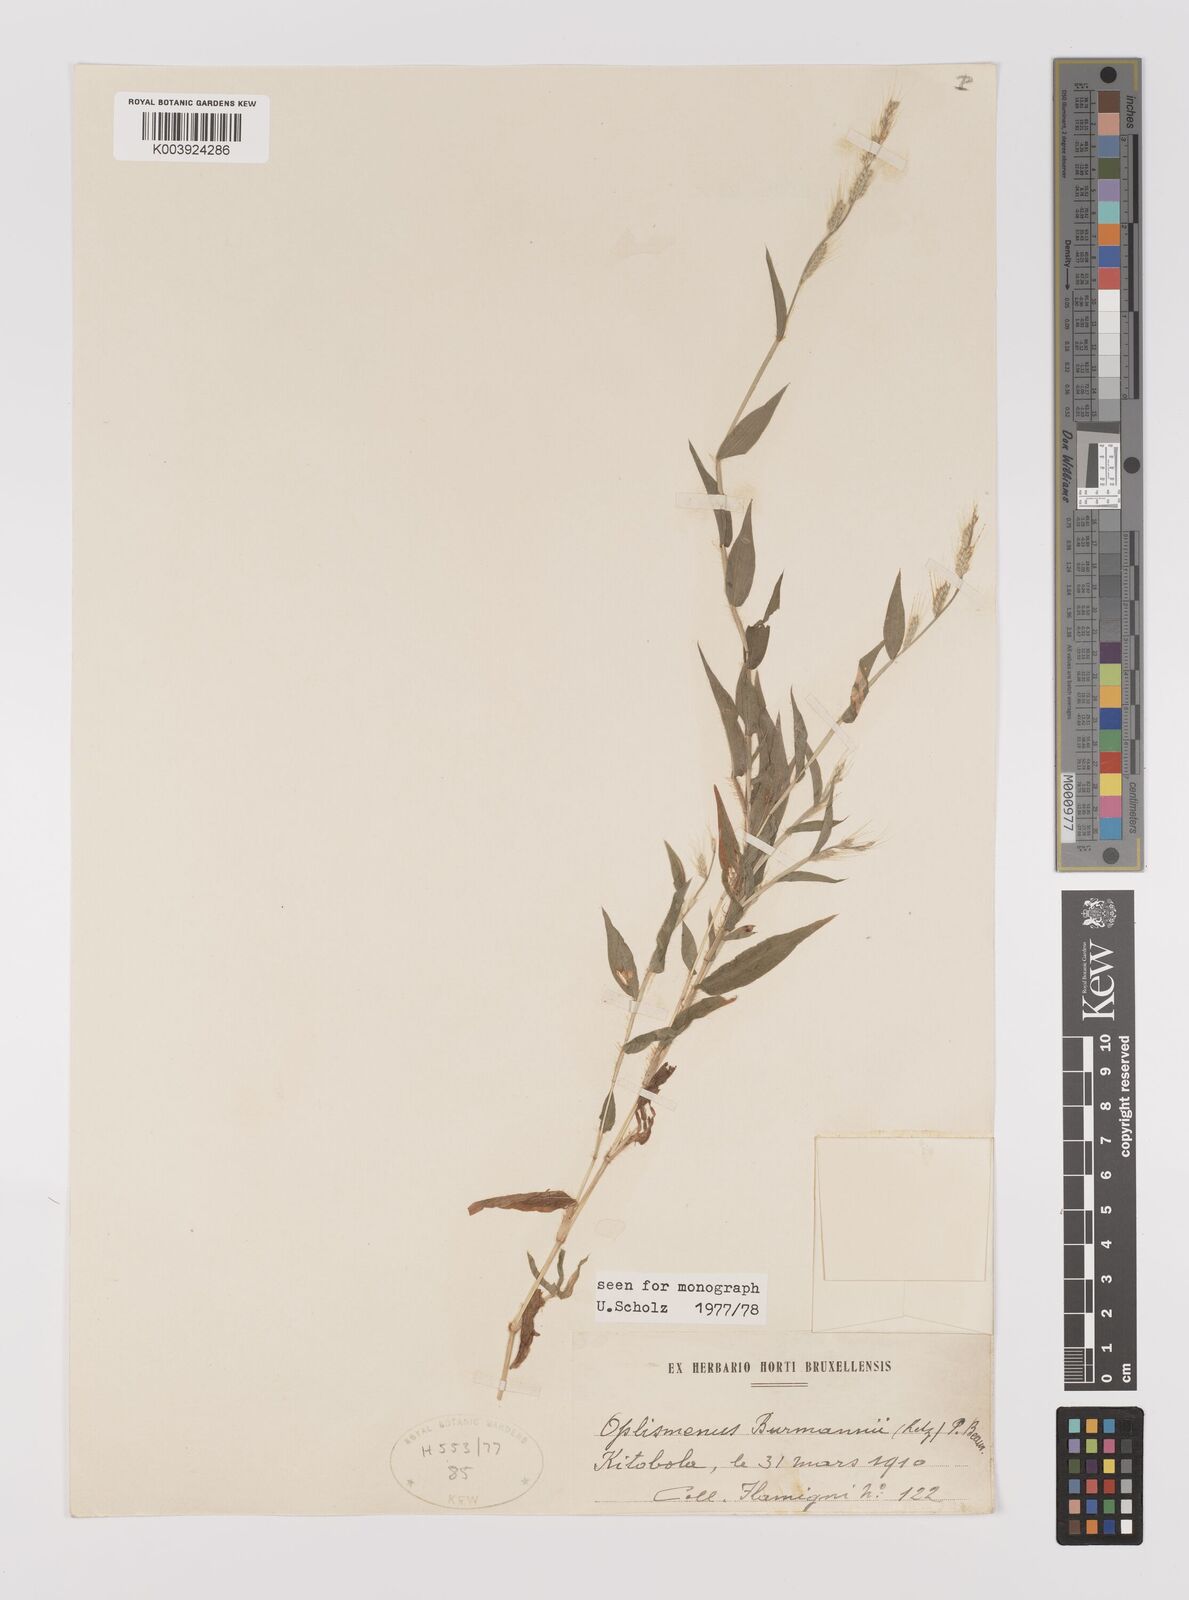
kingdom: Plantae
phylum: Tracheophyta
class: Liliopsida
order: Poales
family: Poaceae
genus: Oplismenus
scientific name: Oplismenus burmanni
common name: Burmann's basketgrass
